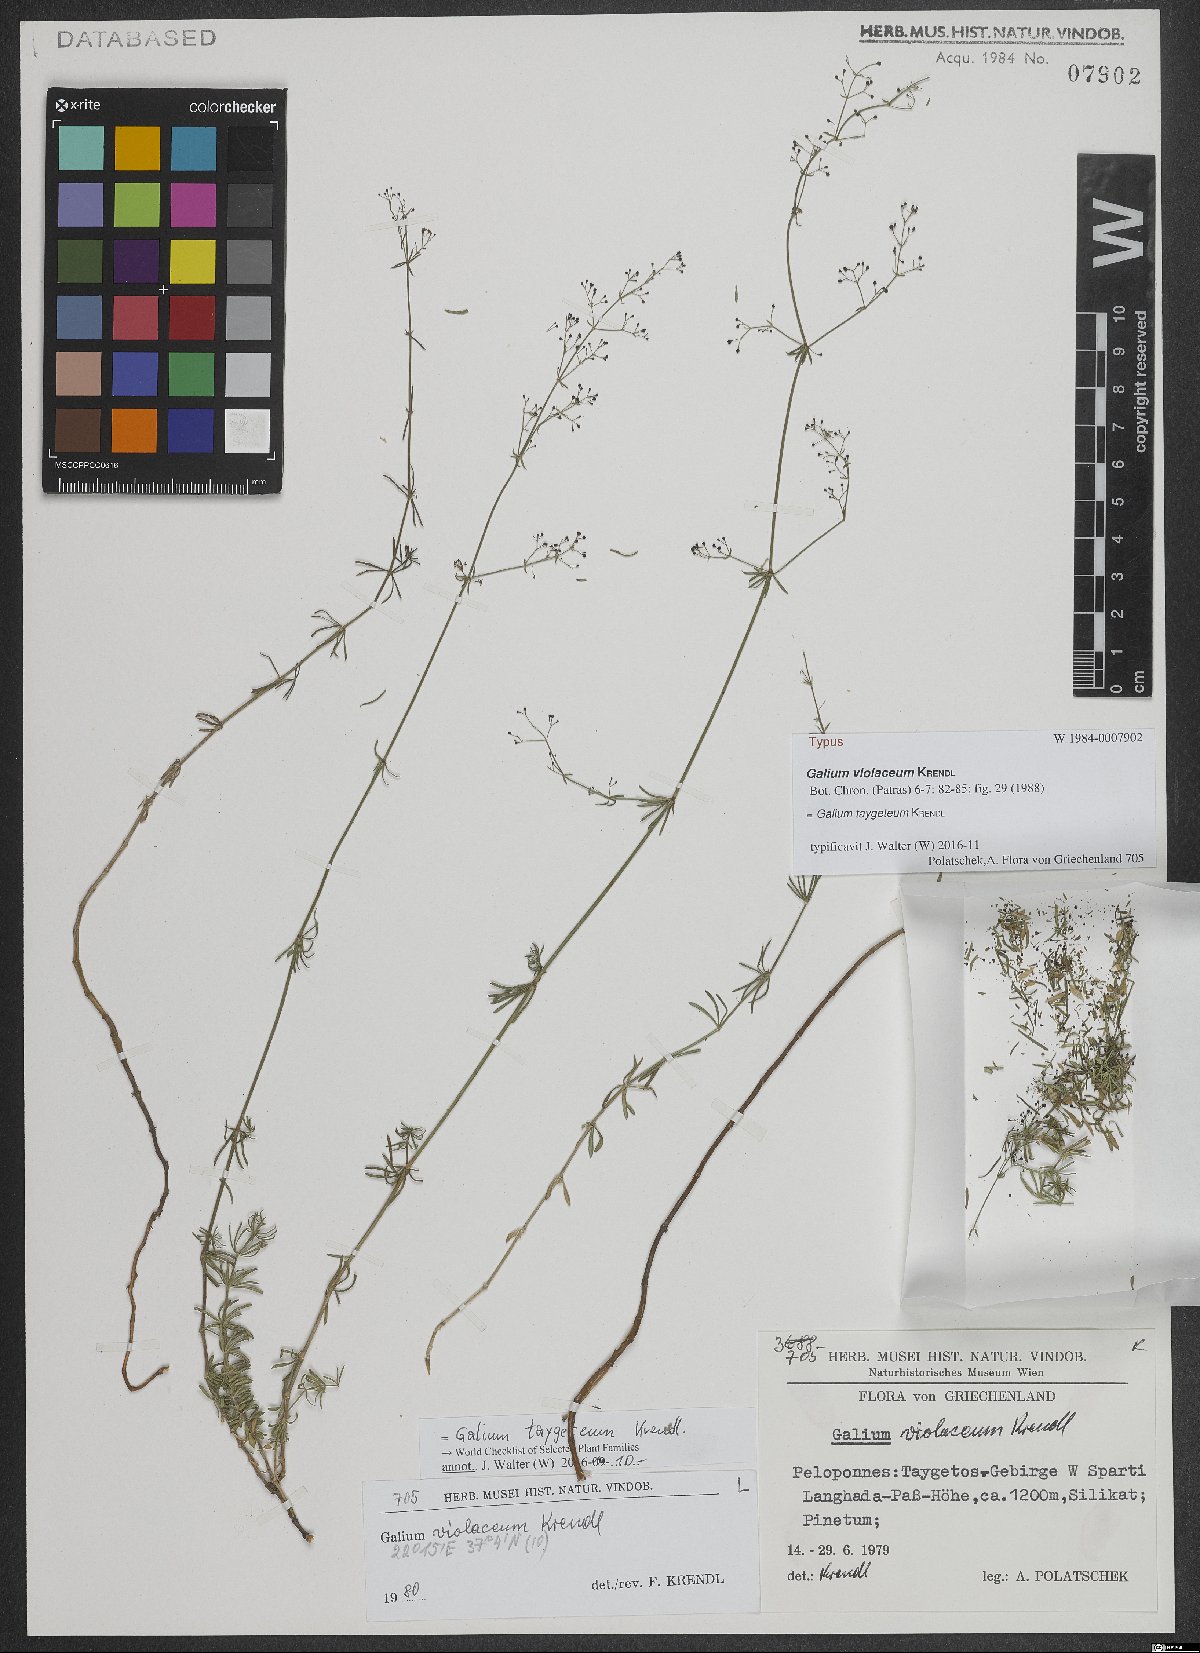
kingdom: Plantae
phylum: Tracheophyta
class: Magnoliopsida
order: Gentianales
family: Rubiaceae
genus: Galium
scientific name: Galium taygeteum
